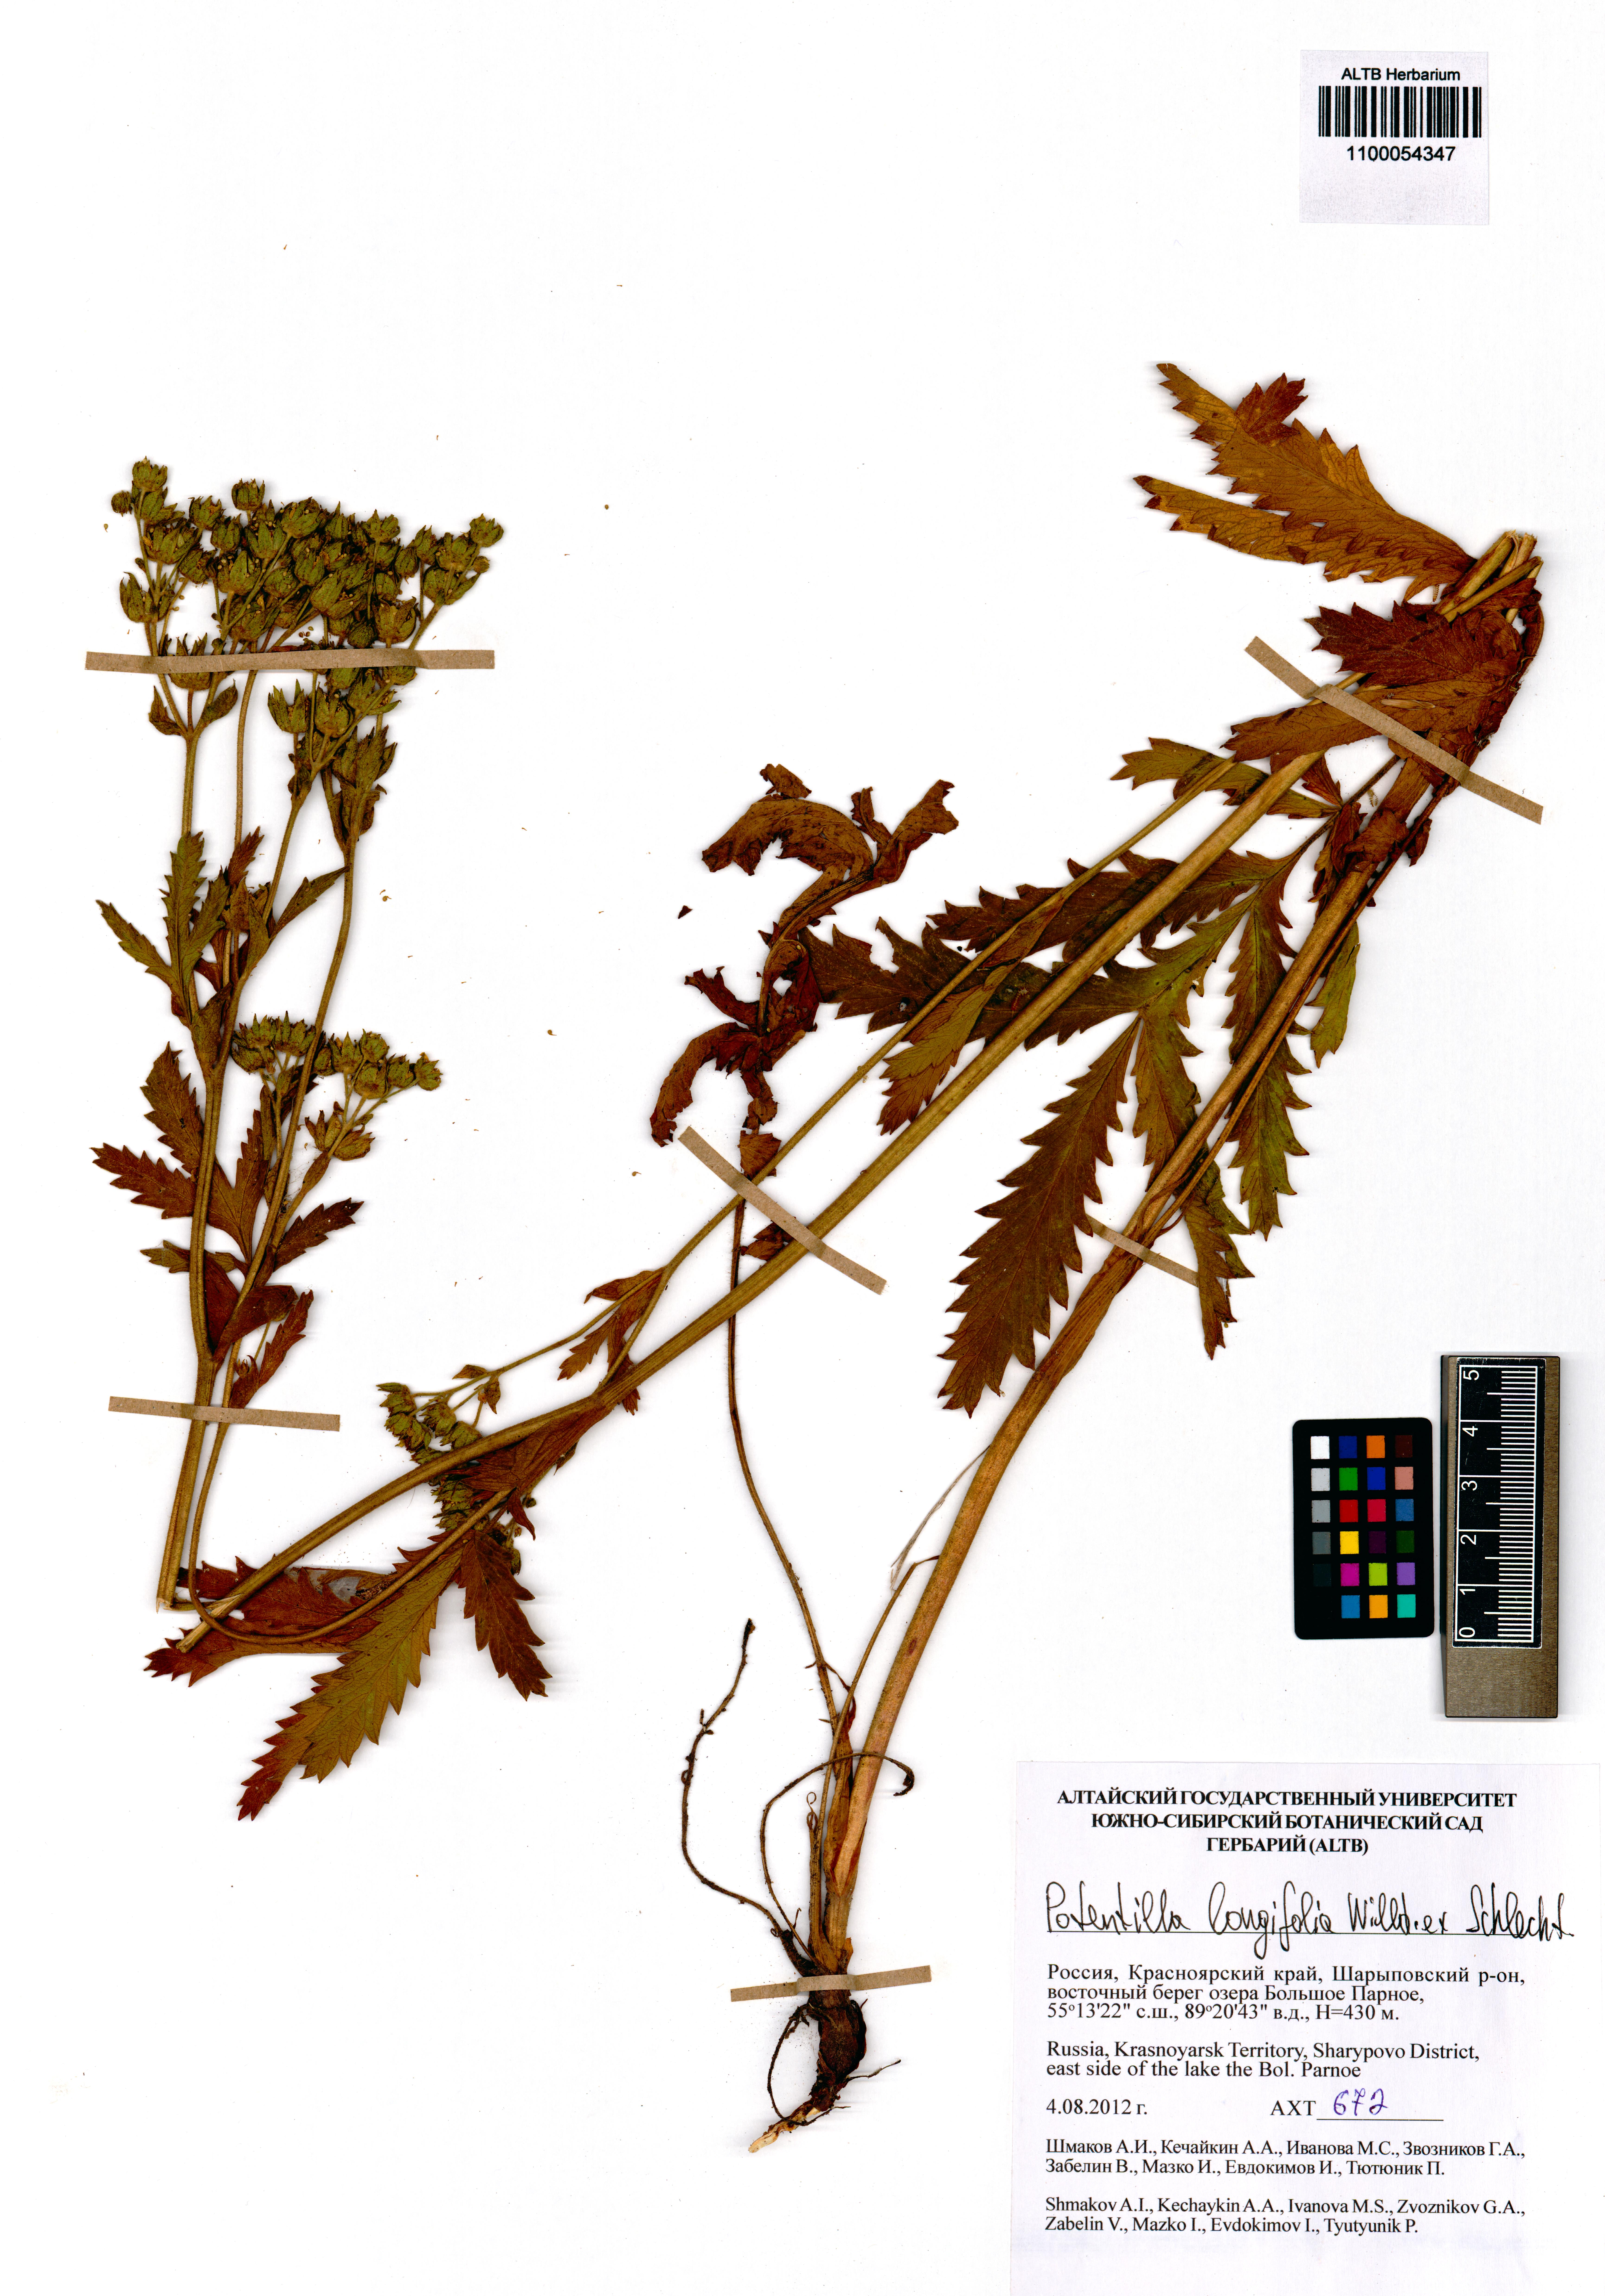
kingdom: Plantae
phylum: Tracheophyta
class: Magnoliopsida
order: Rosales
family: Rosaceae
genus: Potentilla
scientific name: Potentilla longifolia
